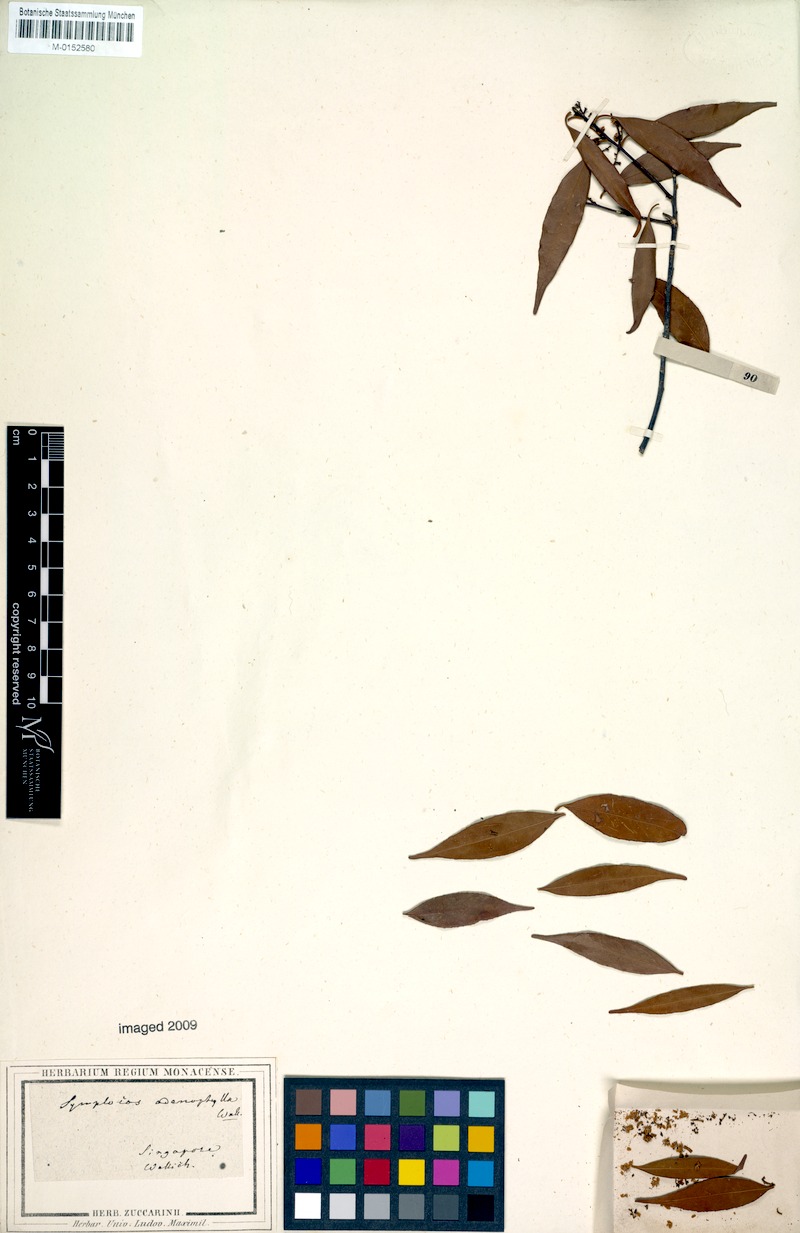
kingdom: Plantae
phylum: Tracheophyta
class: Magnoliopsida
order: Ericales
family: Symplocaceae
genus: Symplocos
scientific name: Symplocos adenophylla
